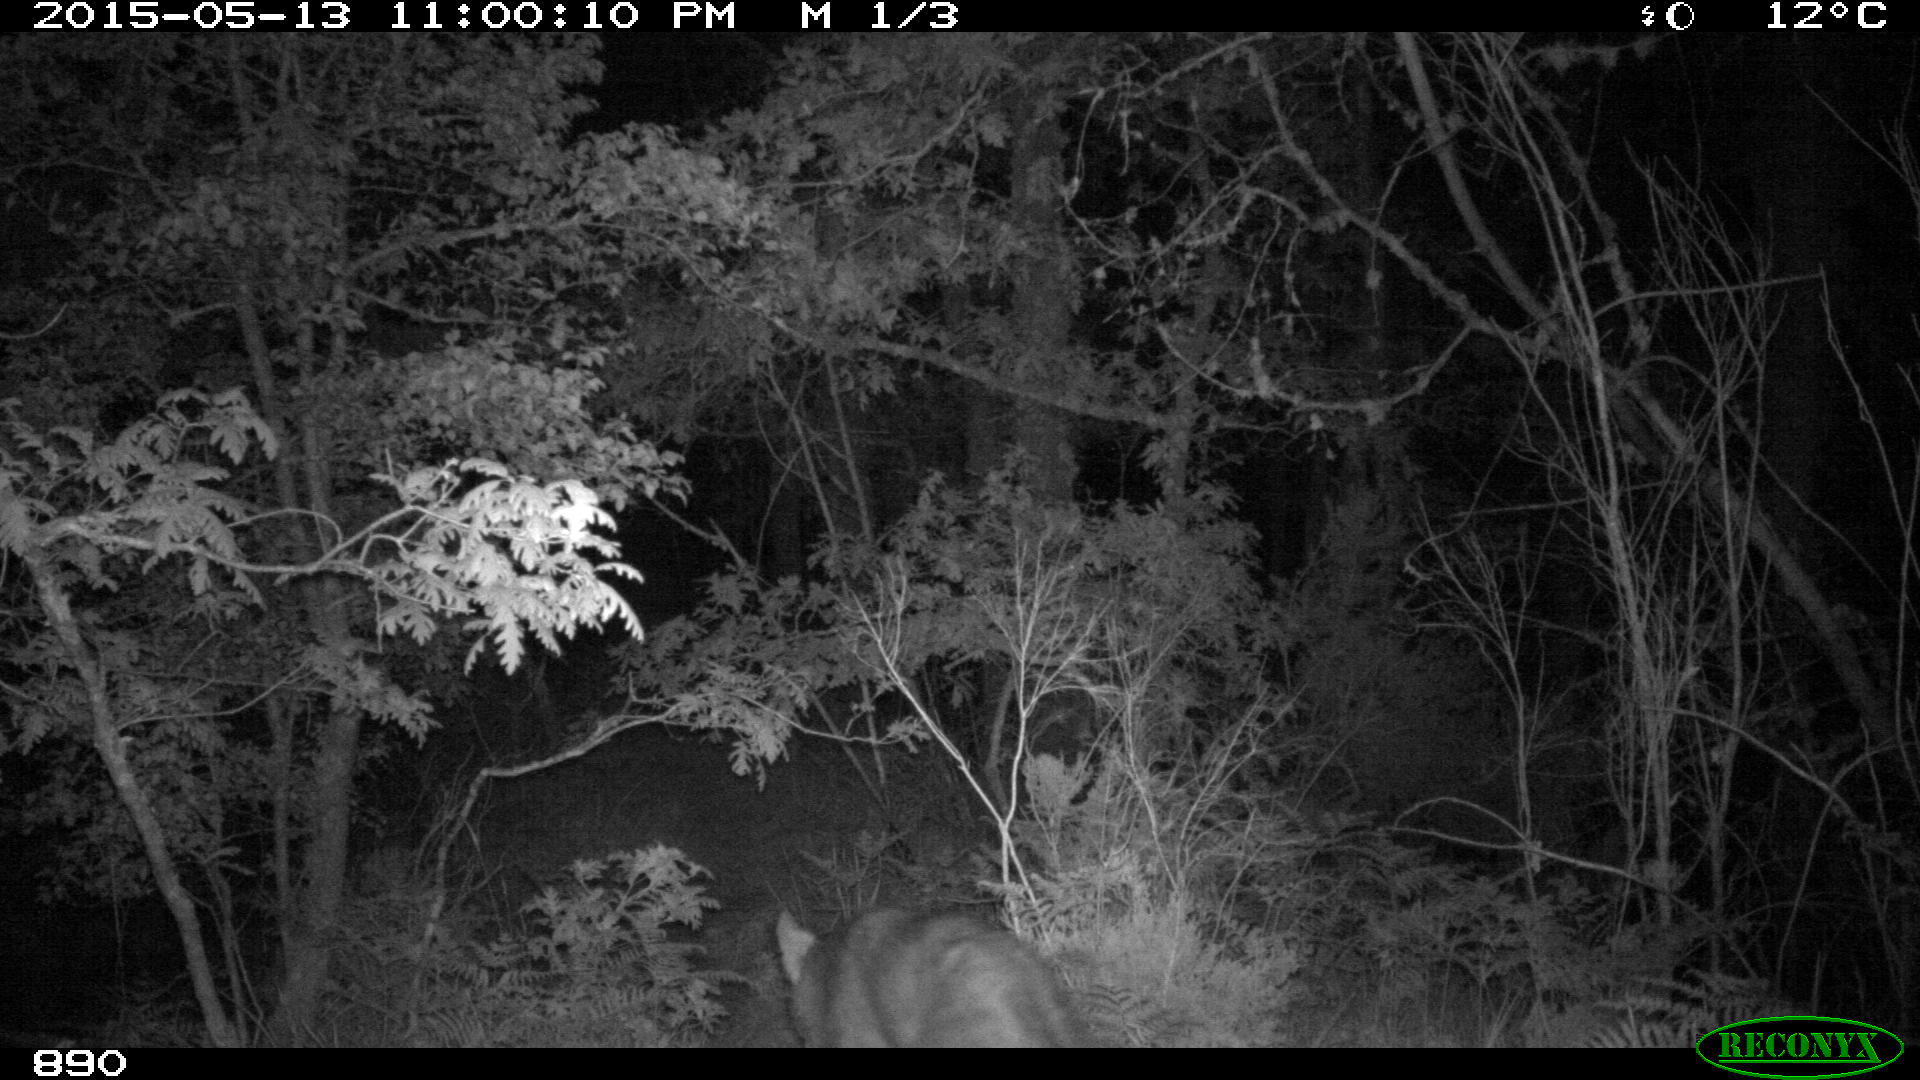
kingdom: Animalia
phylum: Chordata
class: Mammalia
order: Carnivora
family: Canidae
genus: Canis
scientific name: Canis lupus
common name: Gray wolf
